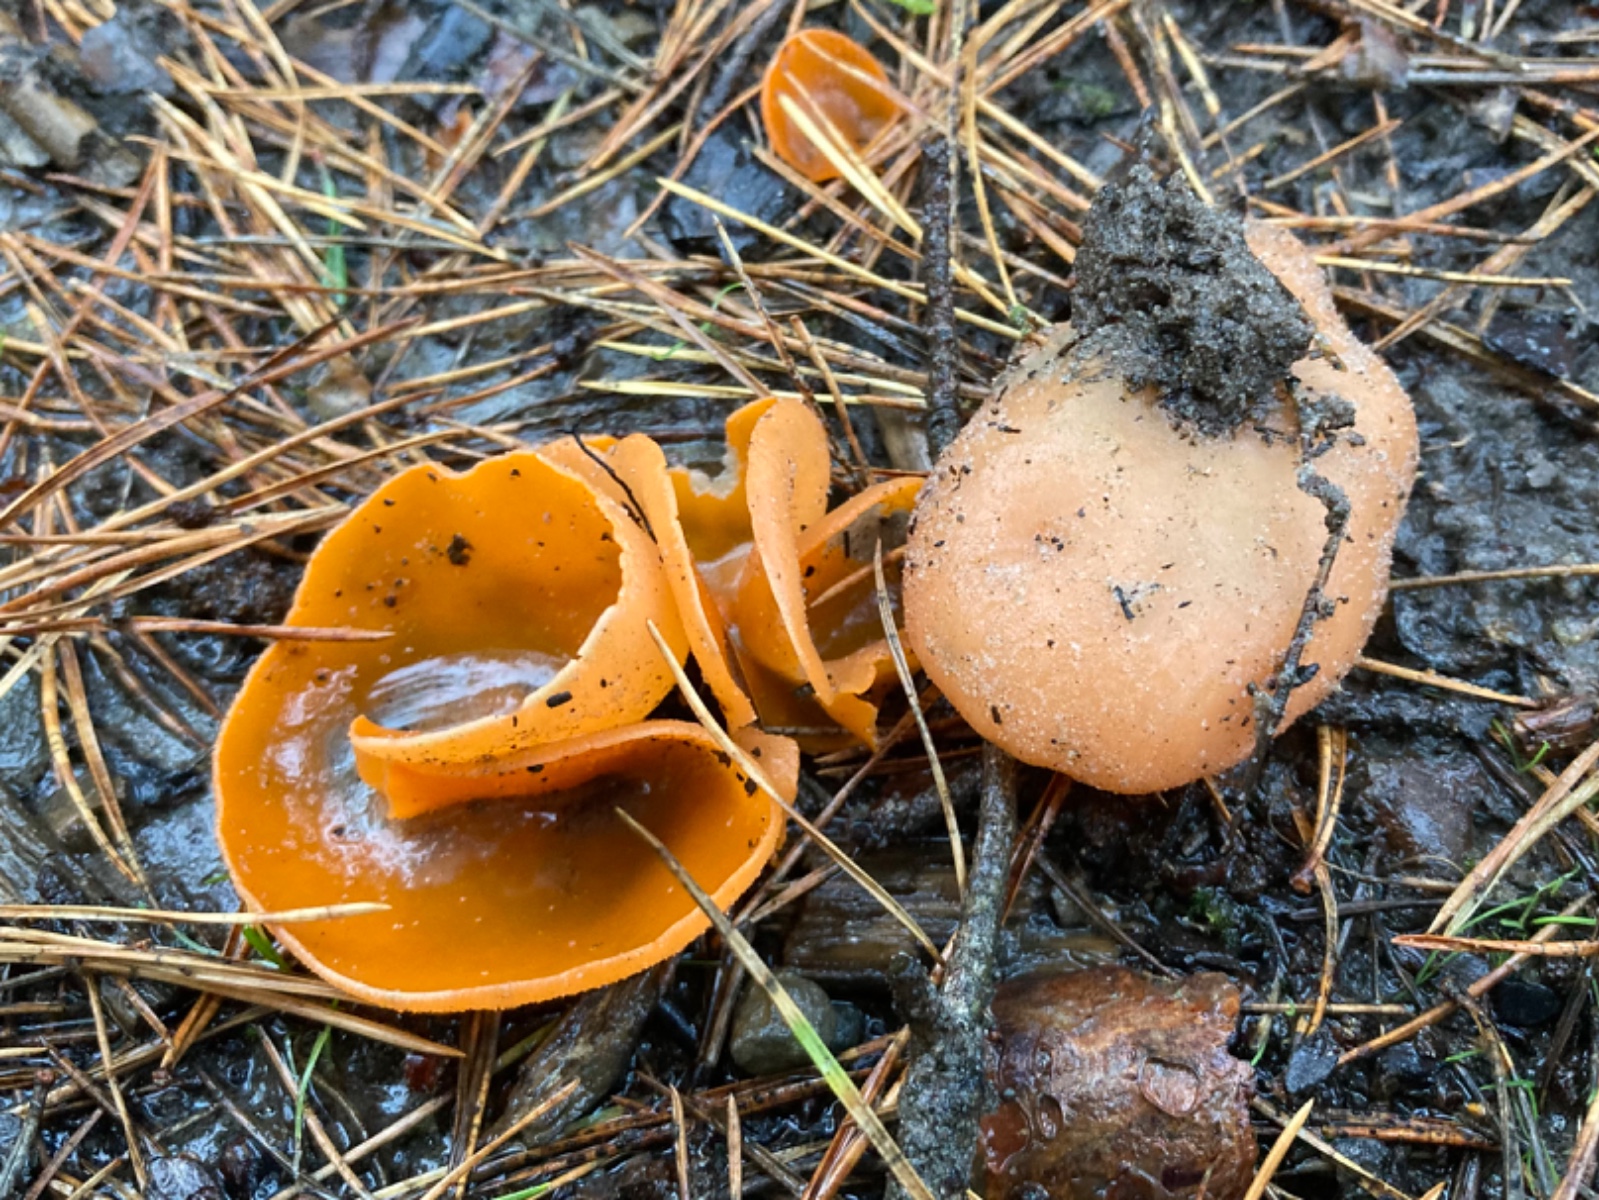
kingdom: Fungi
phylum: Ascomycota
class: Pezizomycetes
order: Pezizales
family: Pyronemataceae
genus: Aleuria
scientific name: Aleuria aurantia
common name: almindelig orangebæger
